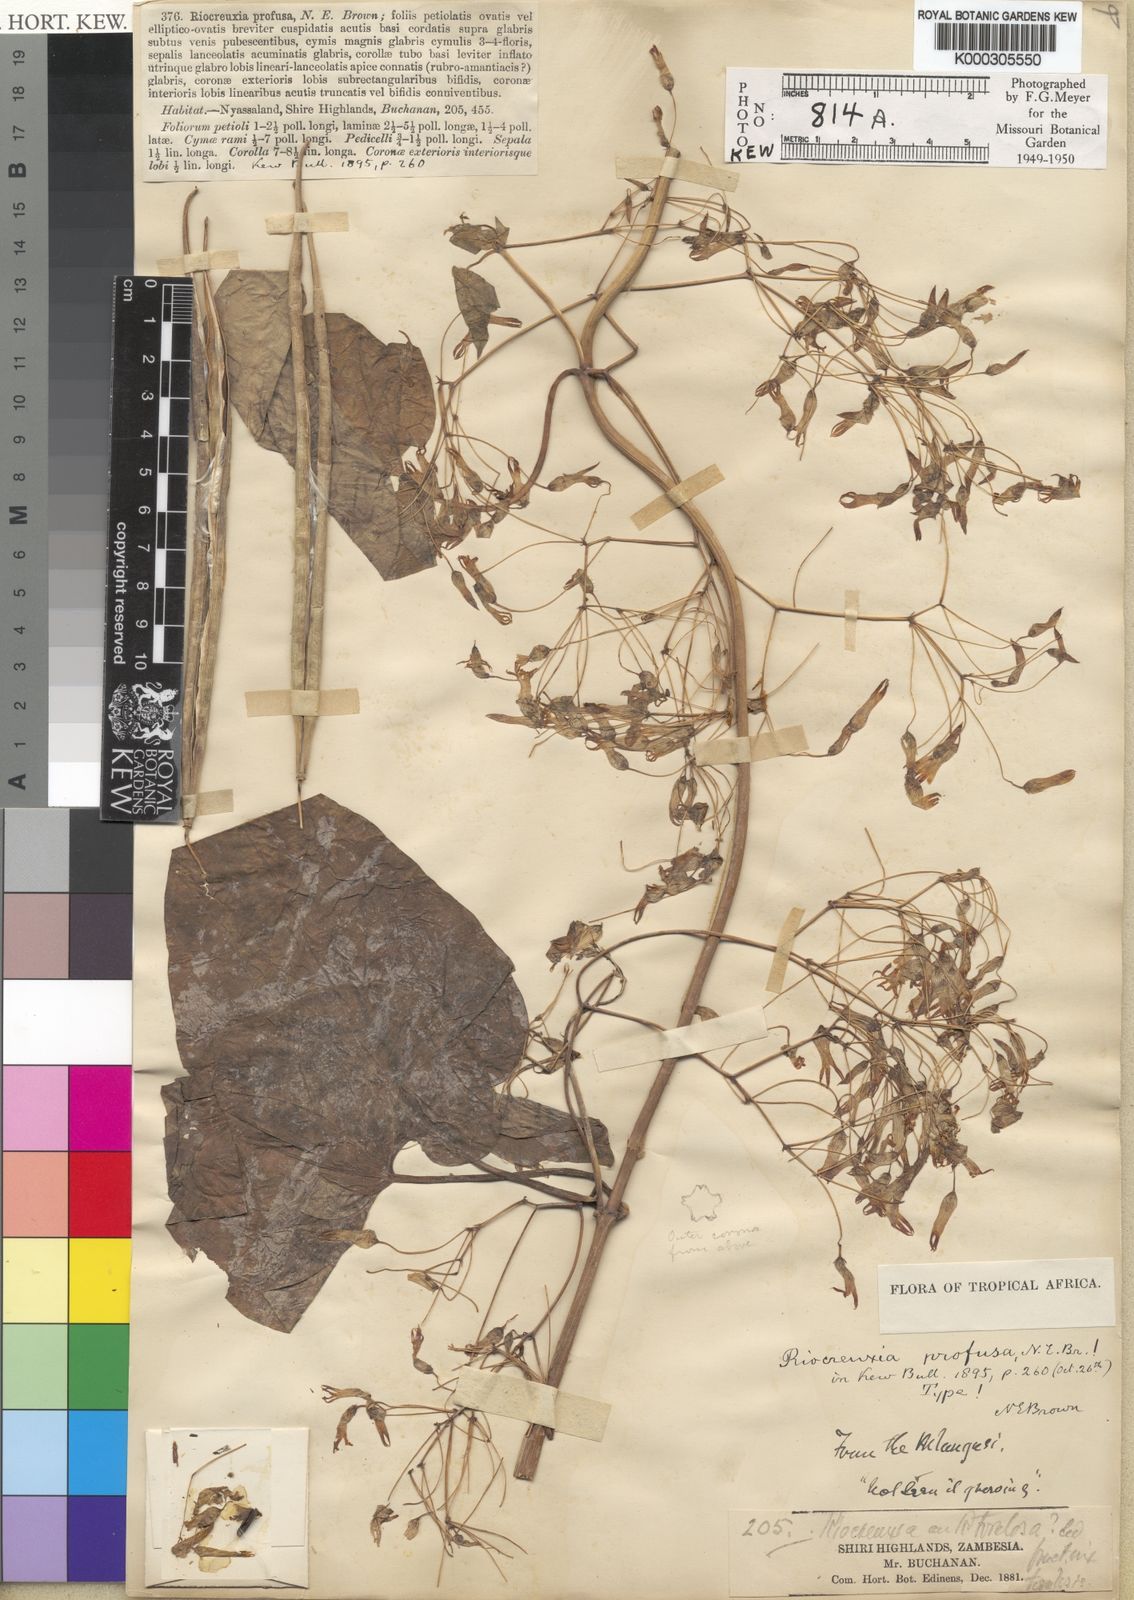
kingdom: Plantae
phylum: Tracheophyta
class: Magnoliopsida
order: Gentianales
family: Apocynaceae
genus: Riocreuxia
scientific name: Riocreuxia polyantha
